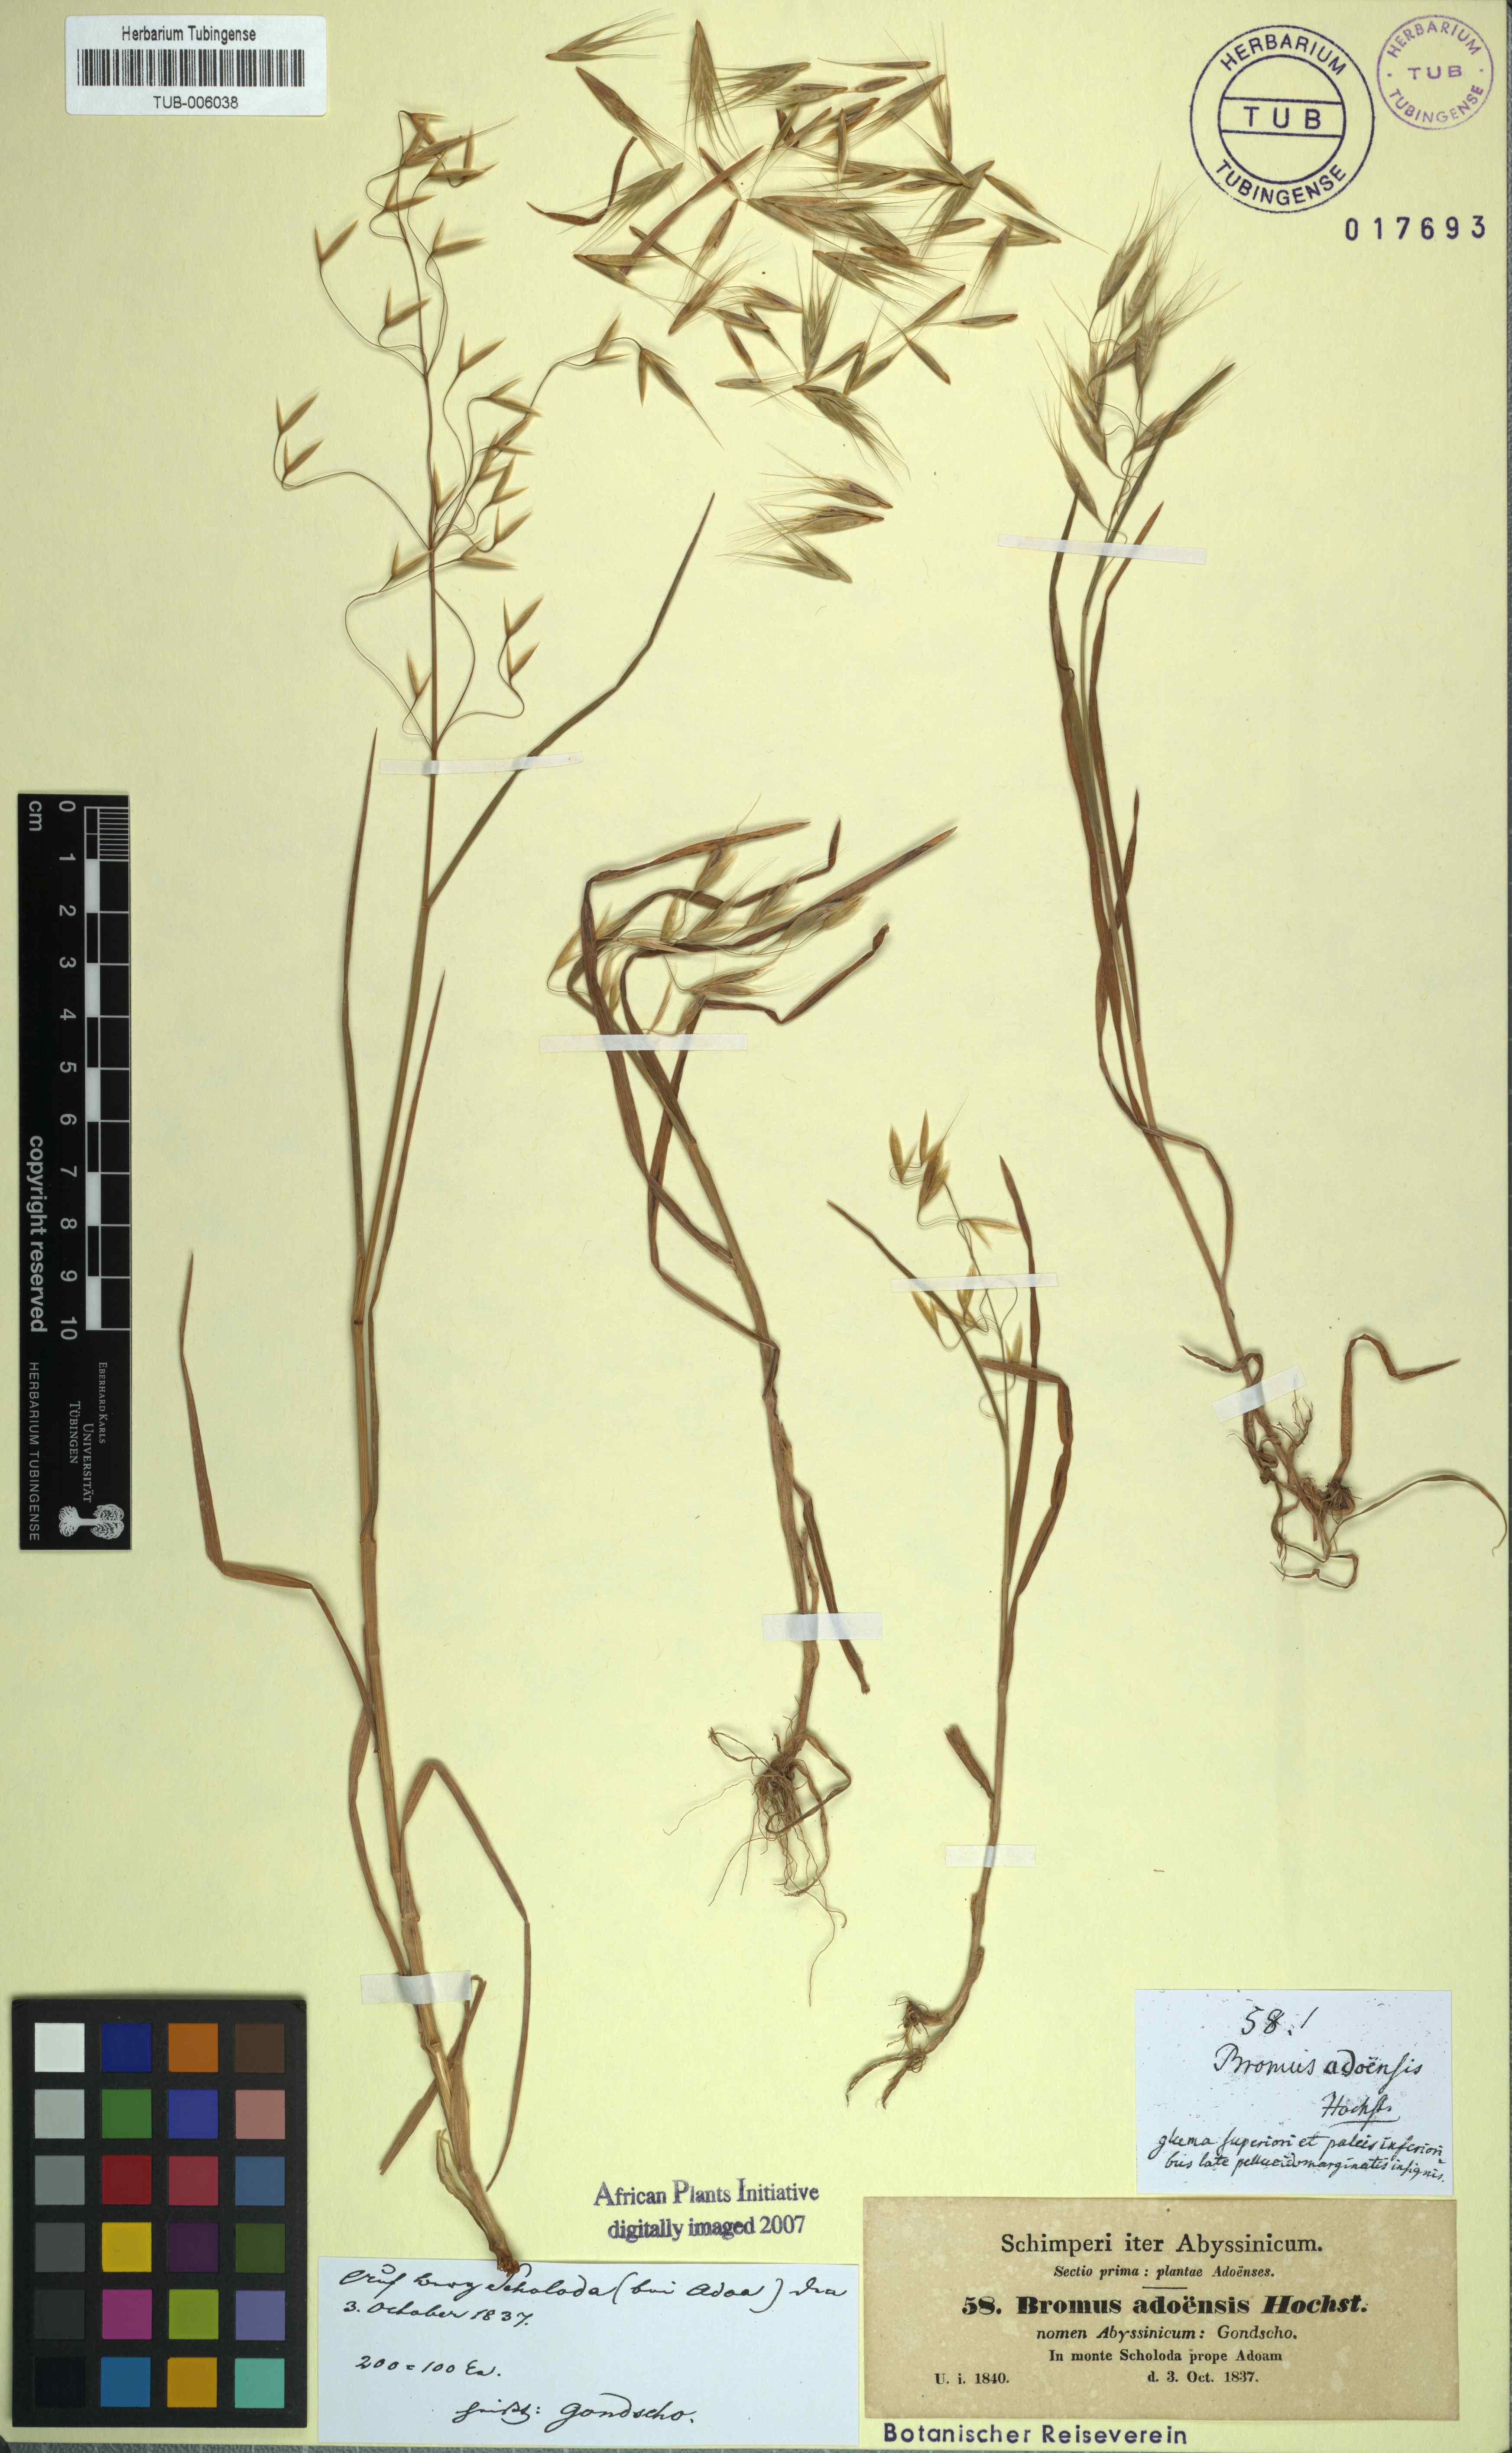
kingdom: Plantae
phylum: Tracheophyta
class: Liliopsida
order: Poales
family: Poaceae
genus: Bromus
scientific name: Bromus pectinatus
